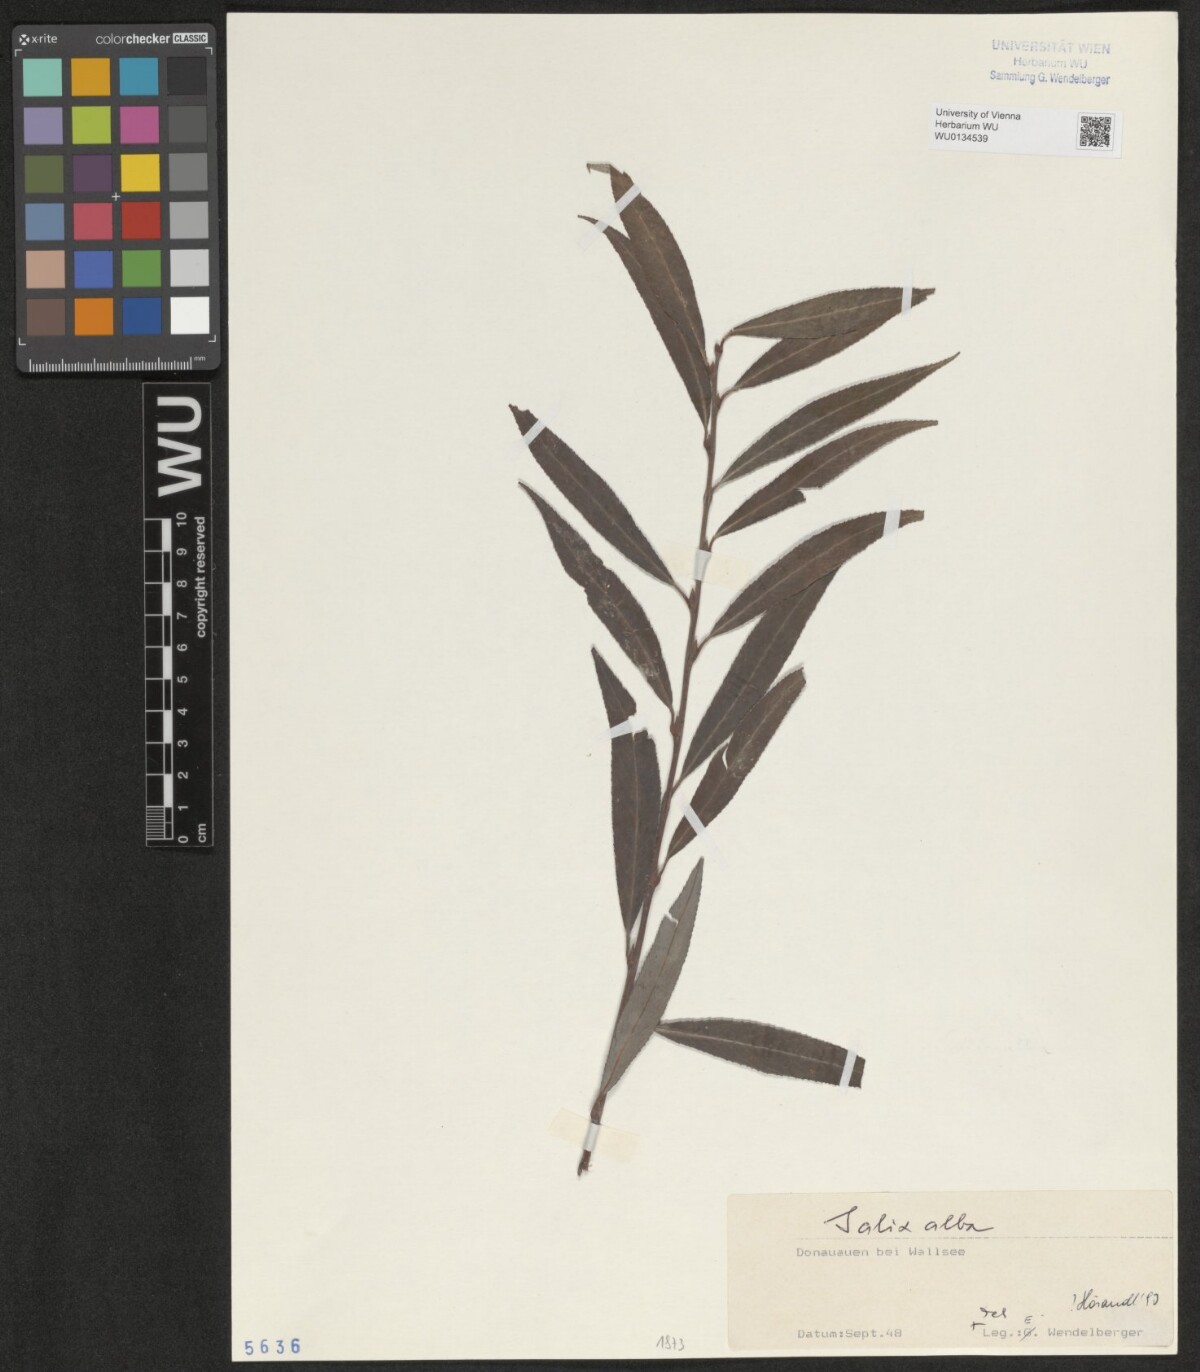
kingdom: Plantae
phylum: Tracheophyta
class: Magnoliopsida
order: Malpighiales
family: Salicaceae
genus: Salix
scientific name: Salix alba
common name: White willow
